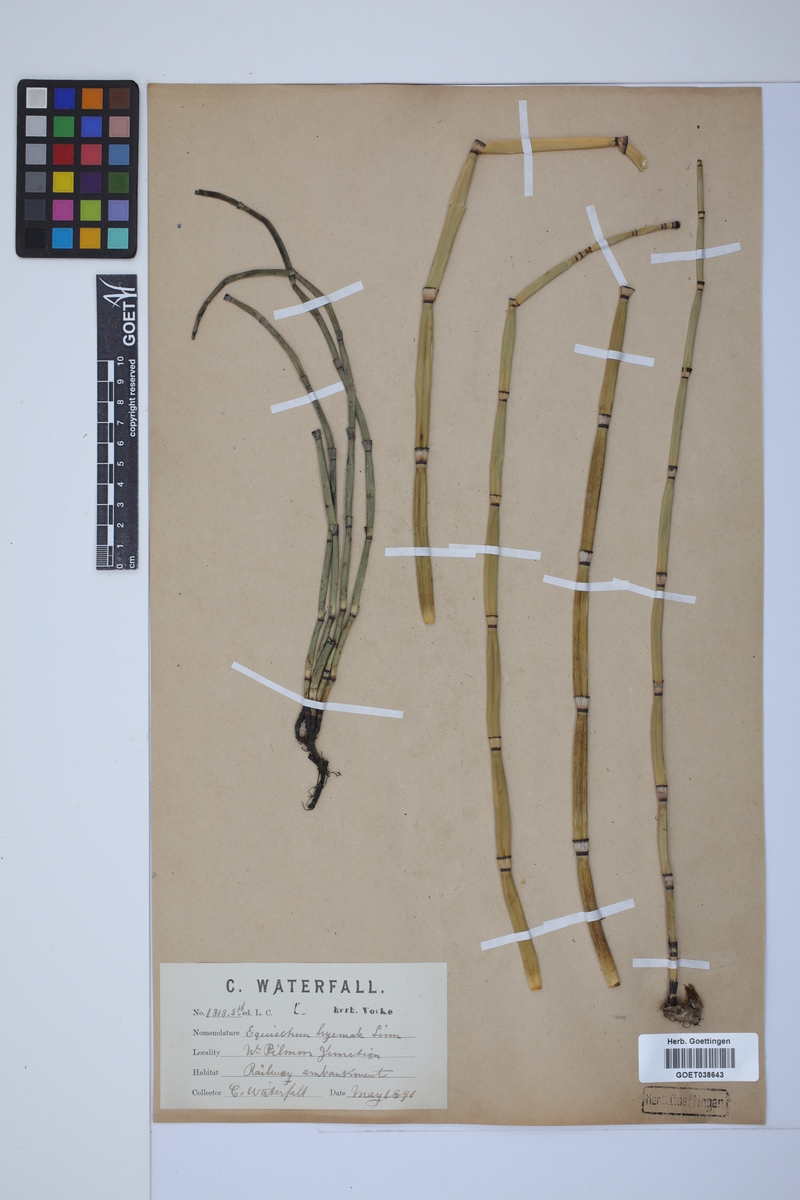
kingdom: Plantae
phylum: Tracheophyta
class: Polypodiopsida
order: Equisetales
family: Equisetaceae
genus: Equisetum
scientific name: Equisetum hyemale
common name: Rough horsetail
